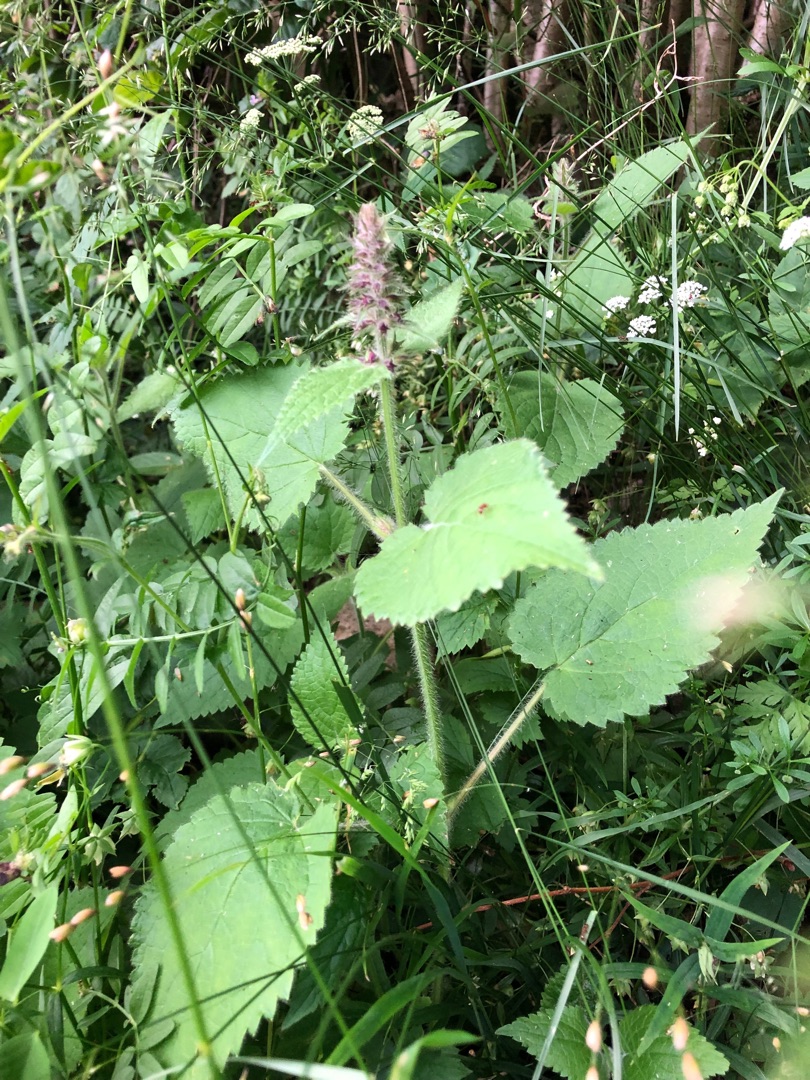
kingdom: Plantae
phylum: Tracheophyta
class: Magnoliopsida
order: Lamiales
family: Lamiaceae
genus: Stachys
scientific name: Stachys sylvatica
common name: Skov-galtetand
